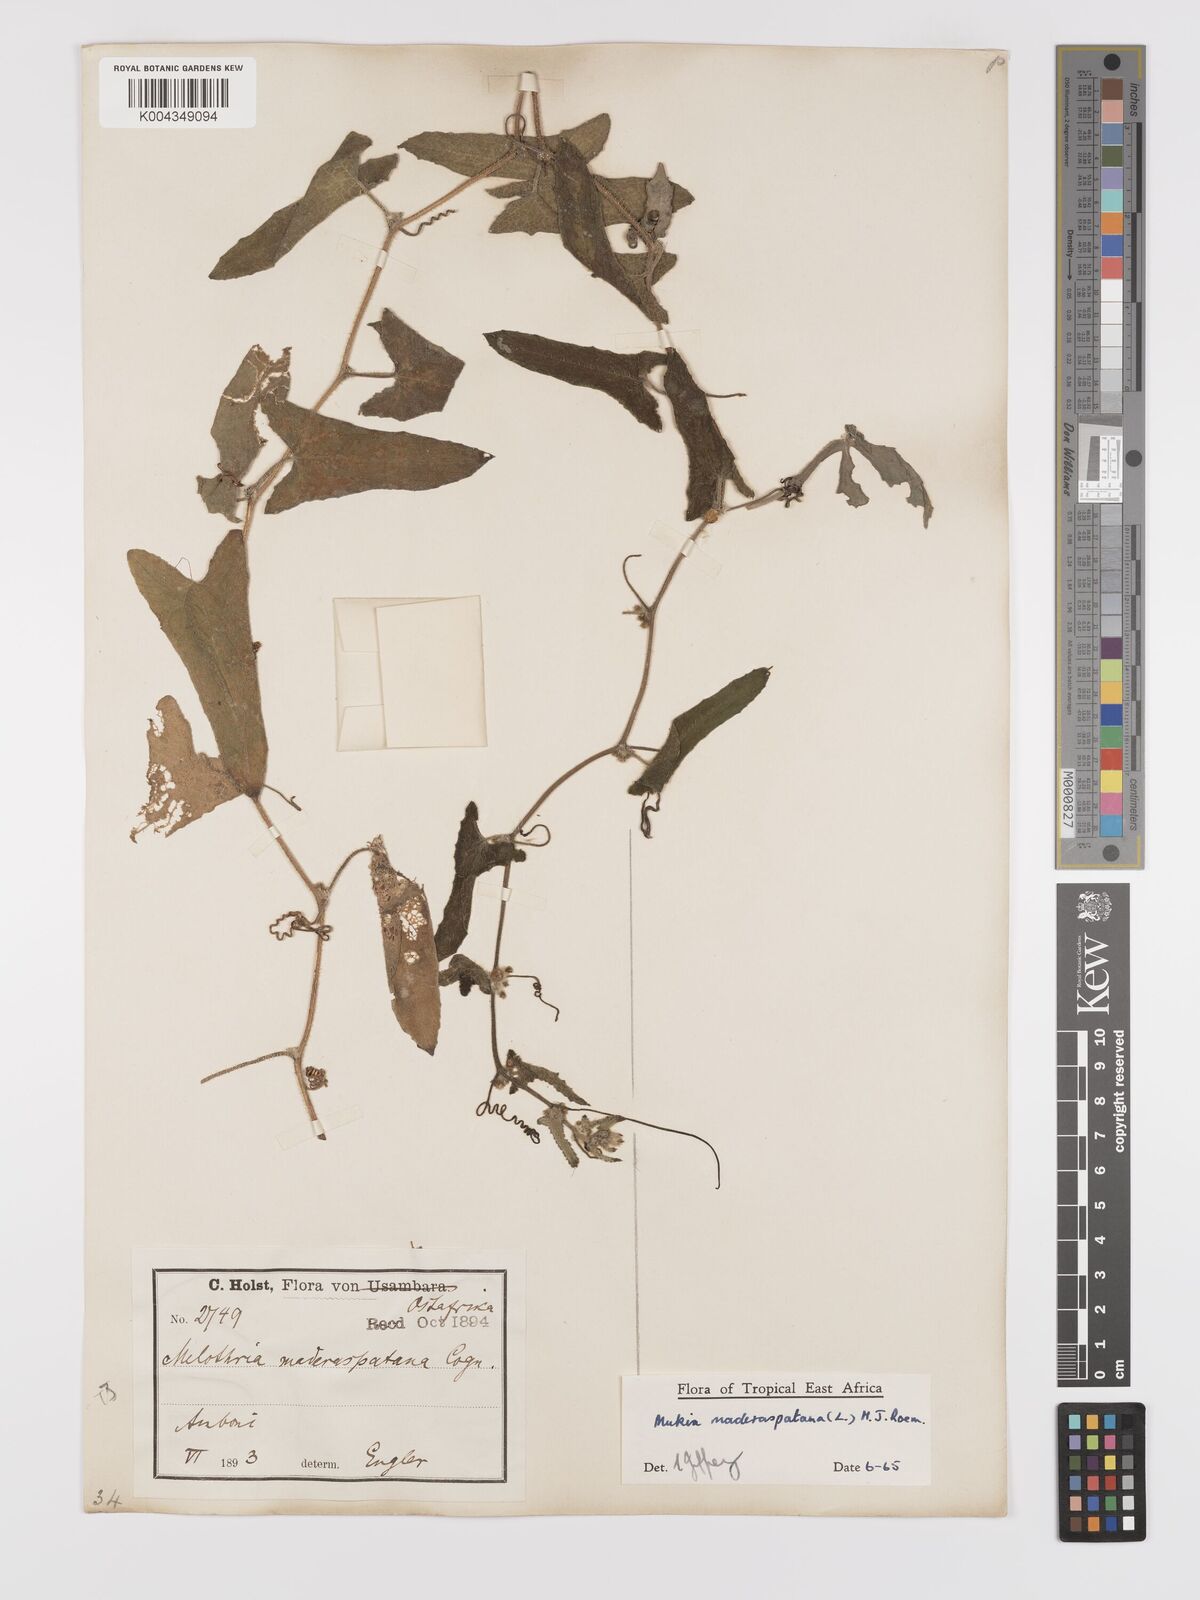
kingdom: Plantae
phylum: Tracheophyta
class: Magnoliopsida
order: Cucurbitales
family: Cucurbitaceae
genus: Cucumis
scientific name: Cucumis maderaspatanus
